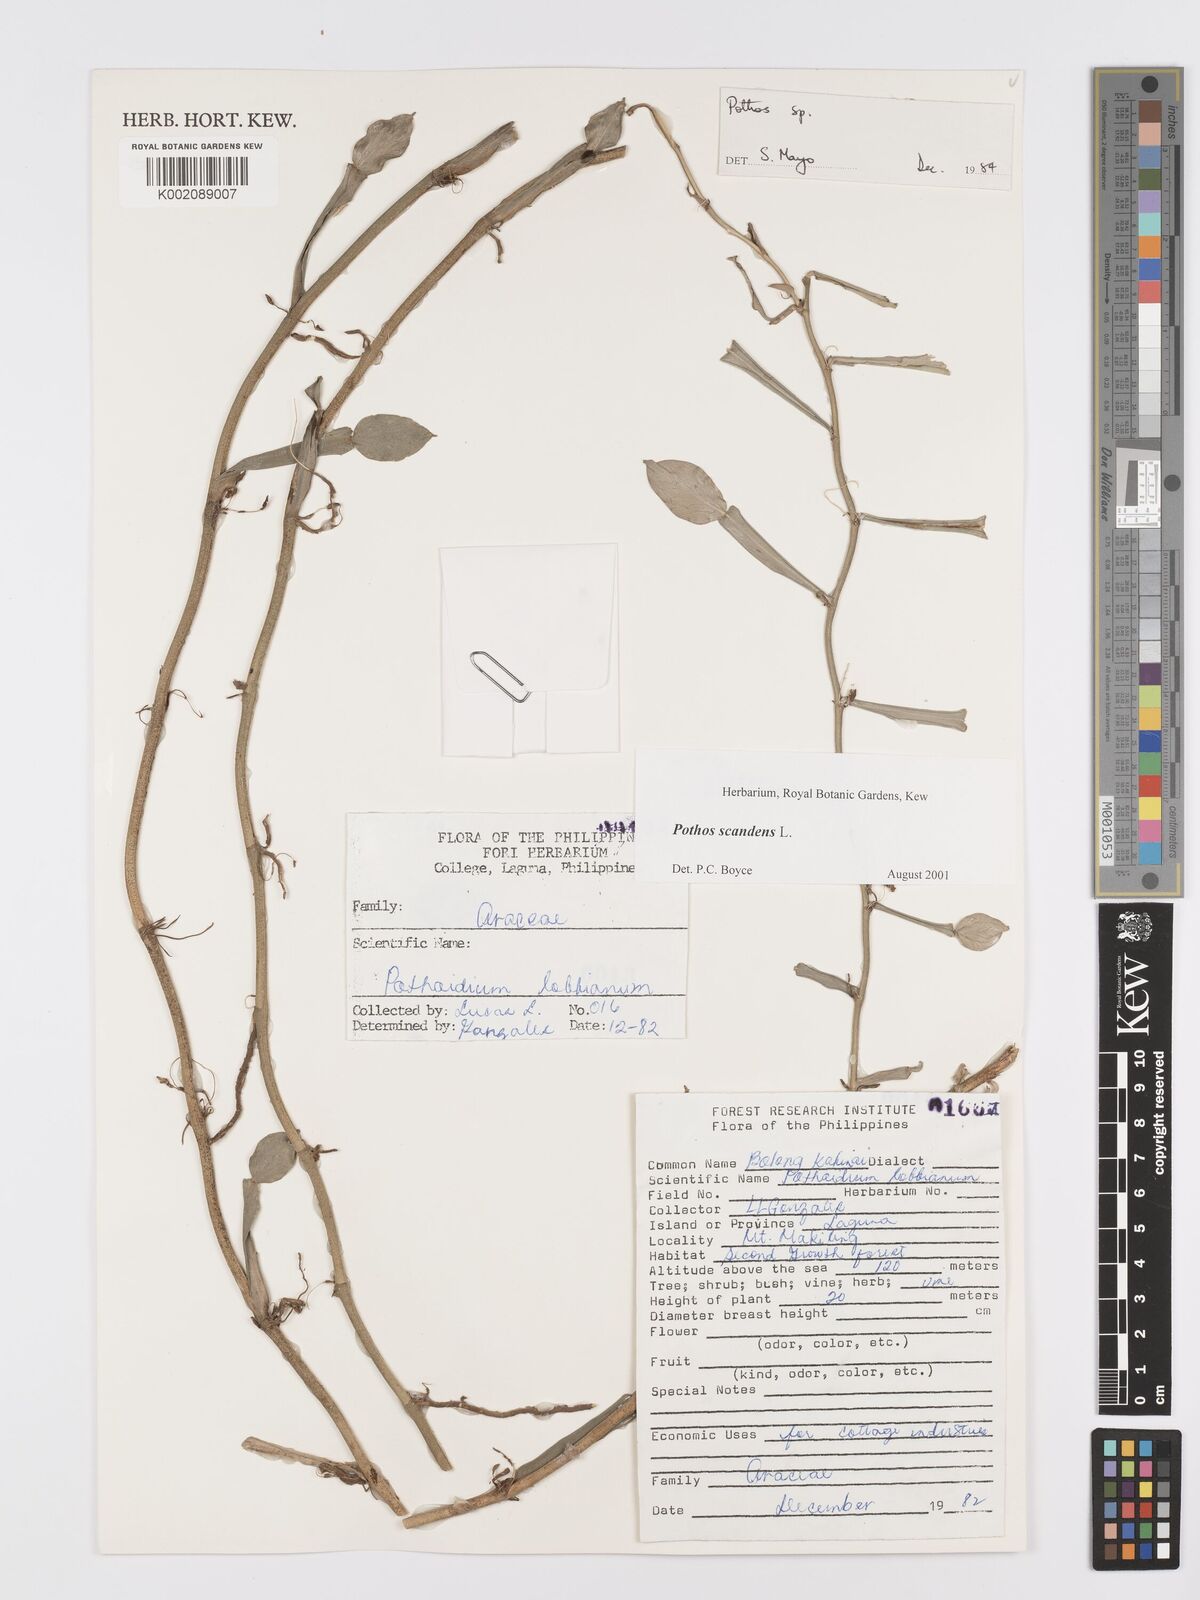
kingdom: Plantae
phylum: Tracheophyta
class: Liliopsida
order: Alismatales
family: Araceae
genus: Pothos
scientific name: Pothos scandens
